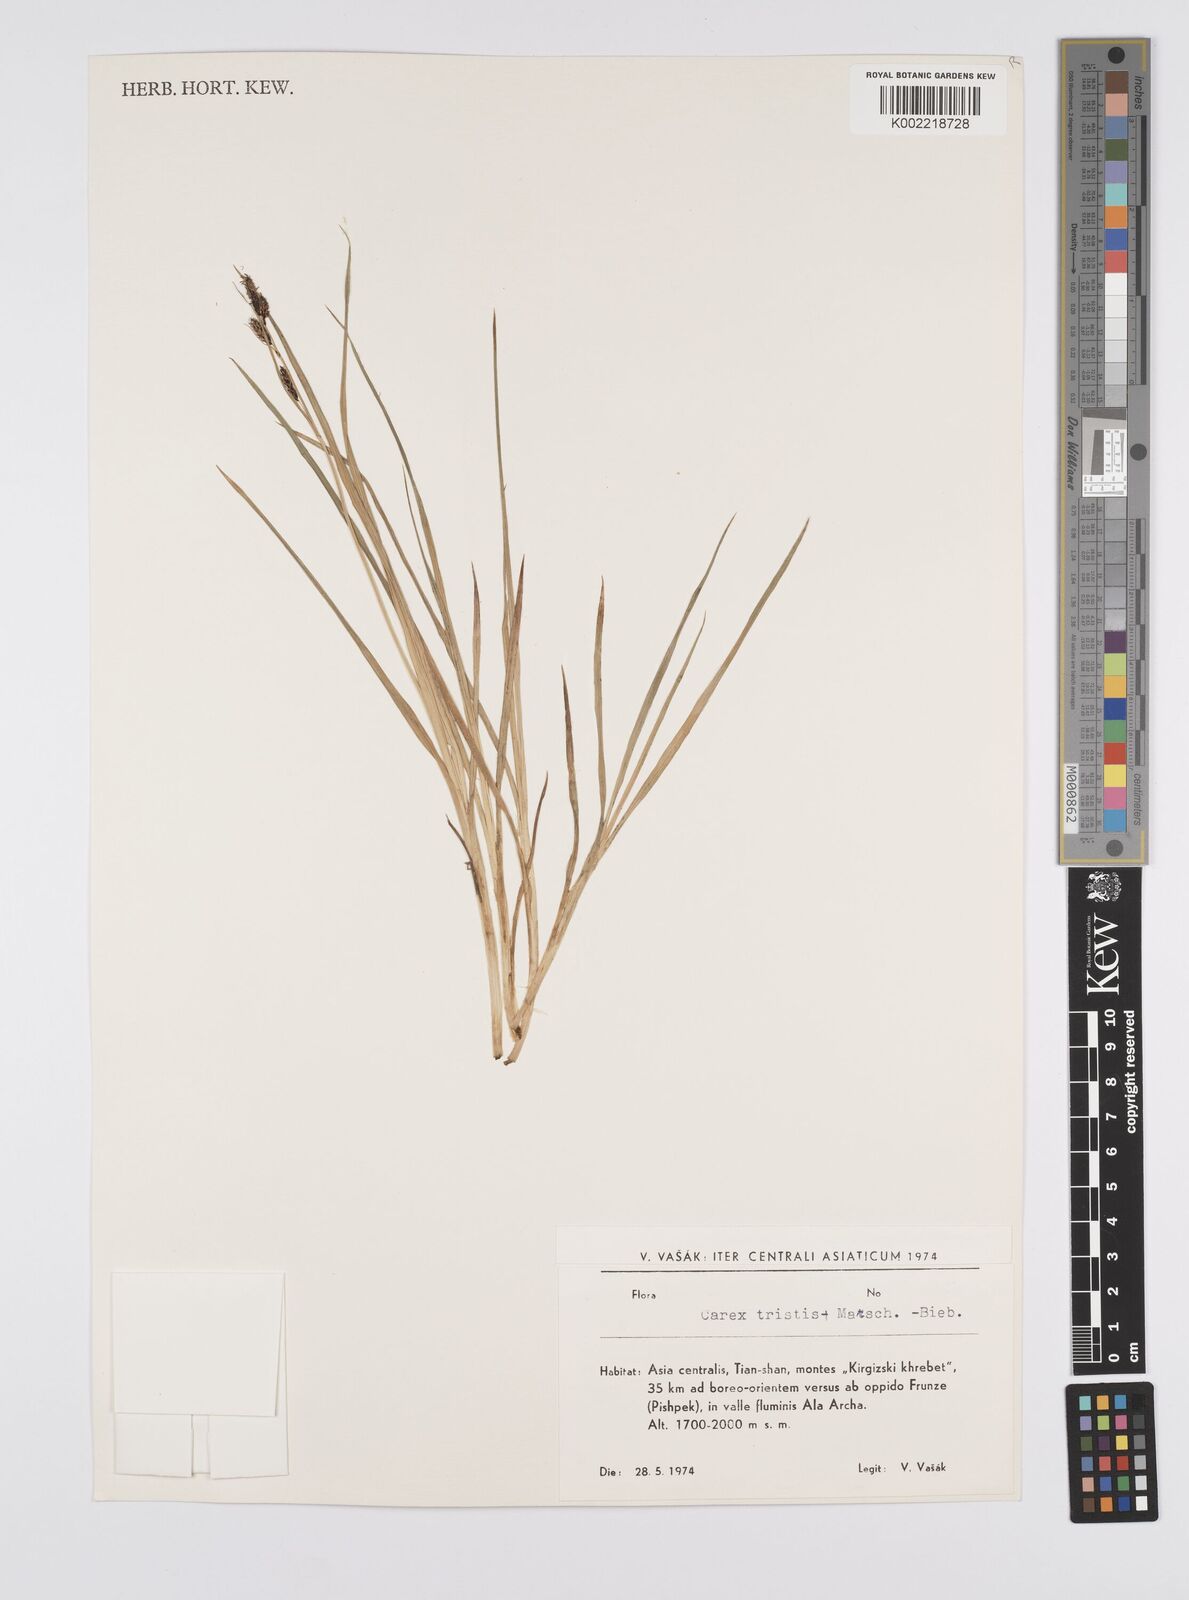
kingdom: Plantae
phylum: Tracheophyta
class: Liliopsida
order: Poales
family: Cyperaceae
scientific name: Cyperaceae
